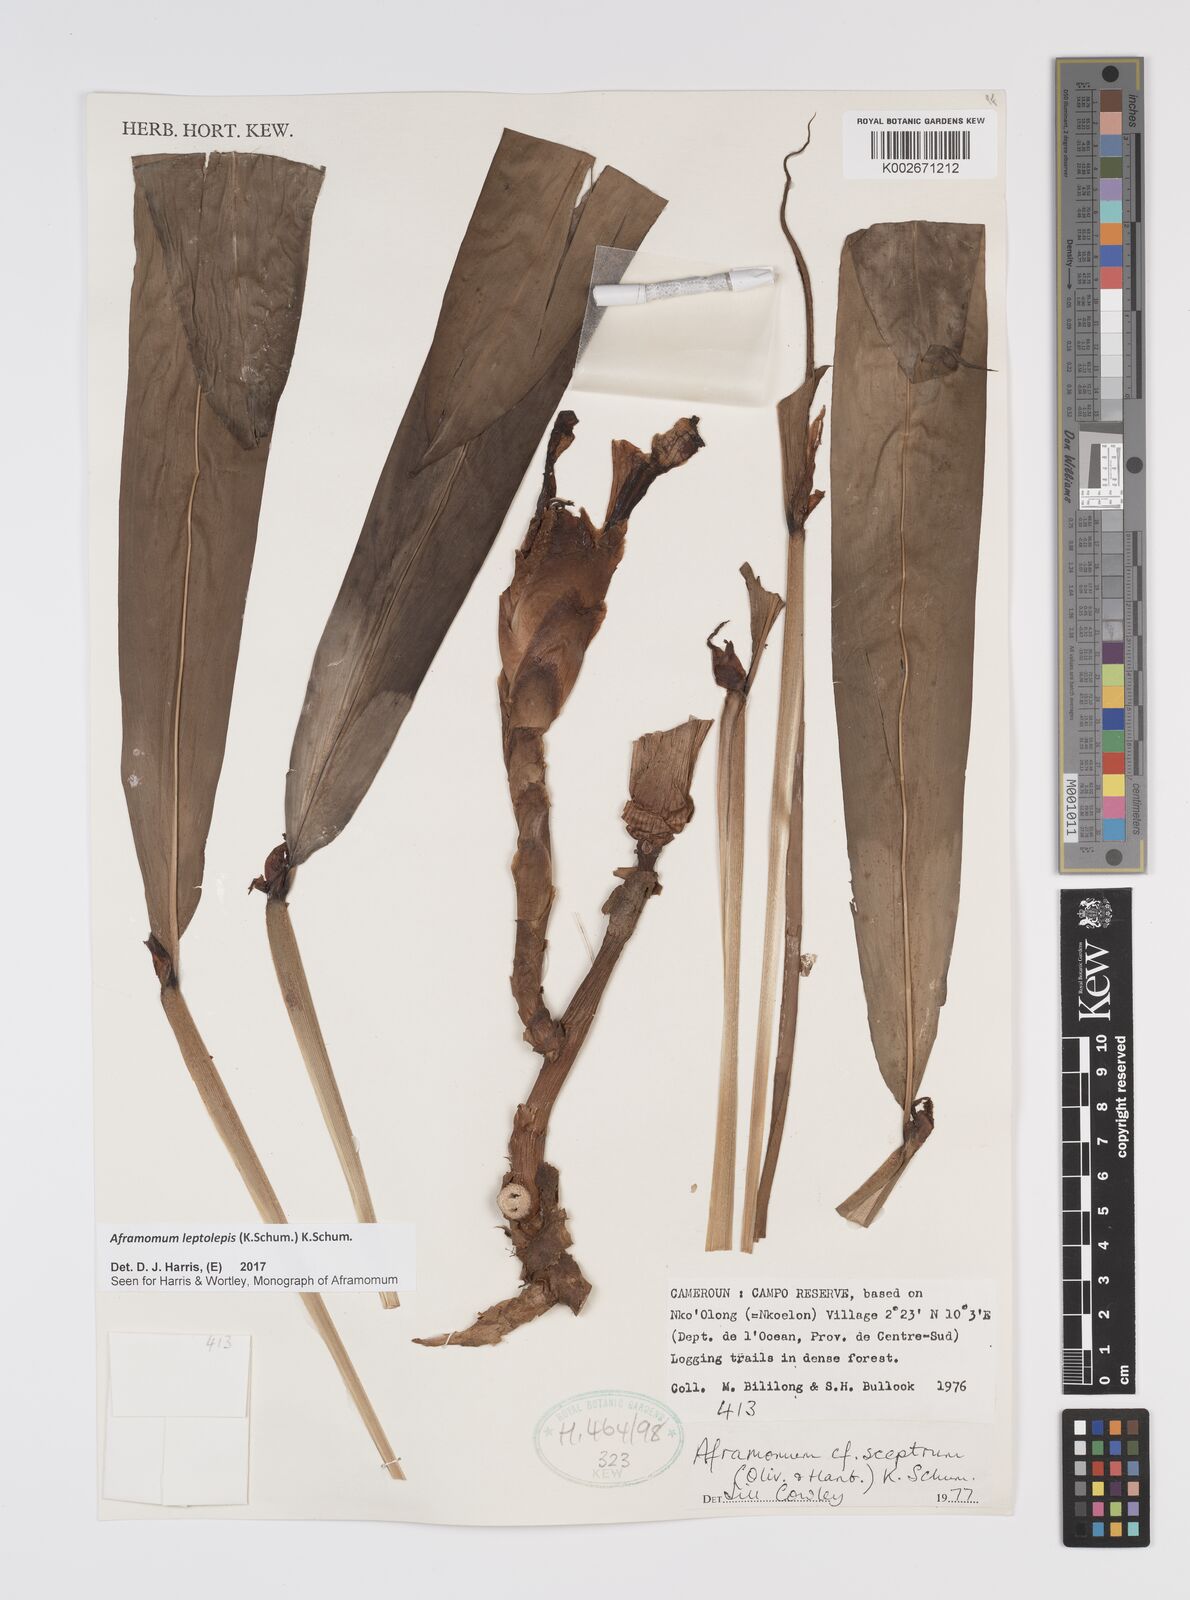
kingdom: Plantae
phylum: Tracheophyta
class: Liliopsida
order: Zingiberales
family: Zingiberaceae
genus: Aframomum
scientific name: Aframomum leptolepis
